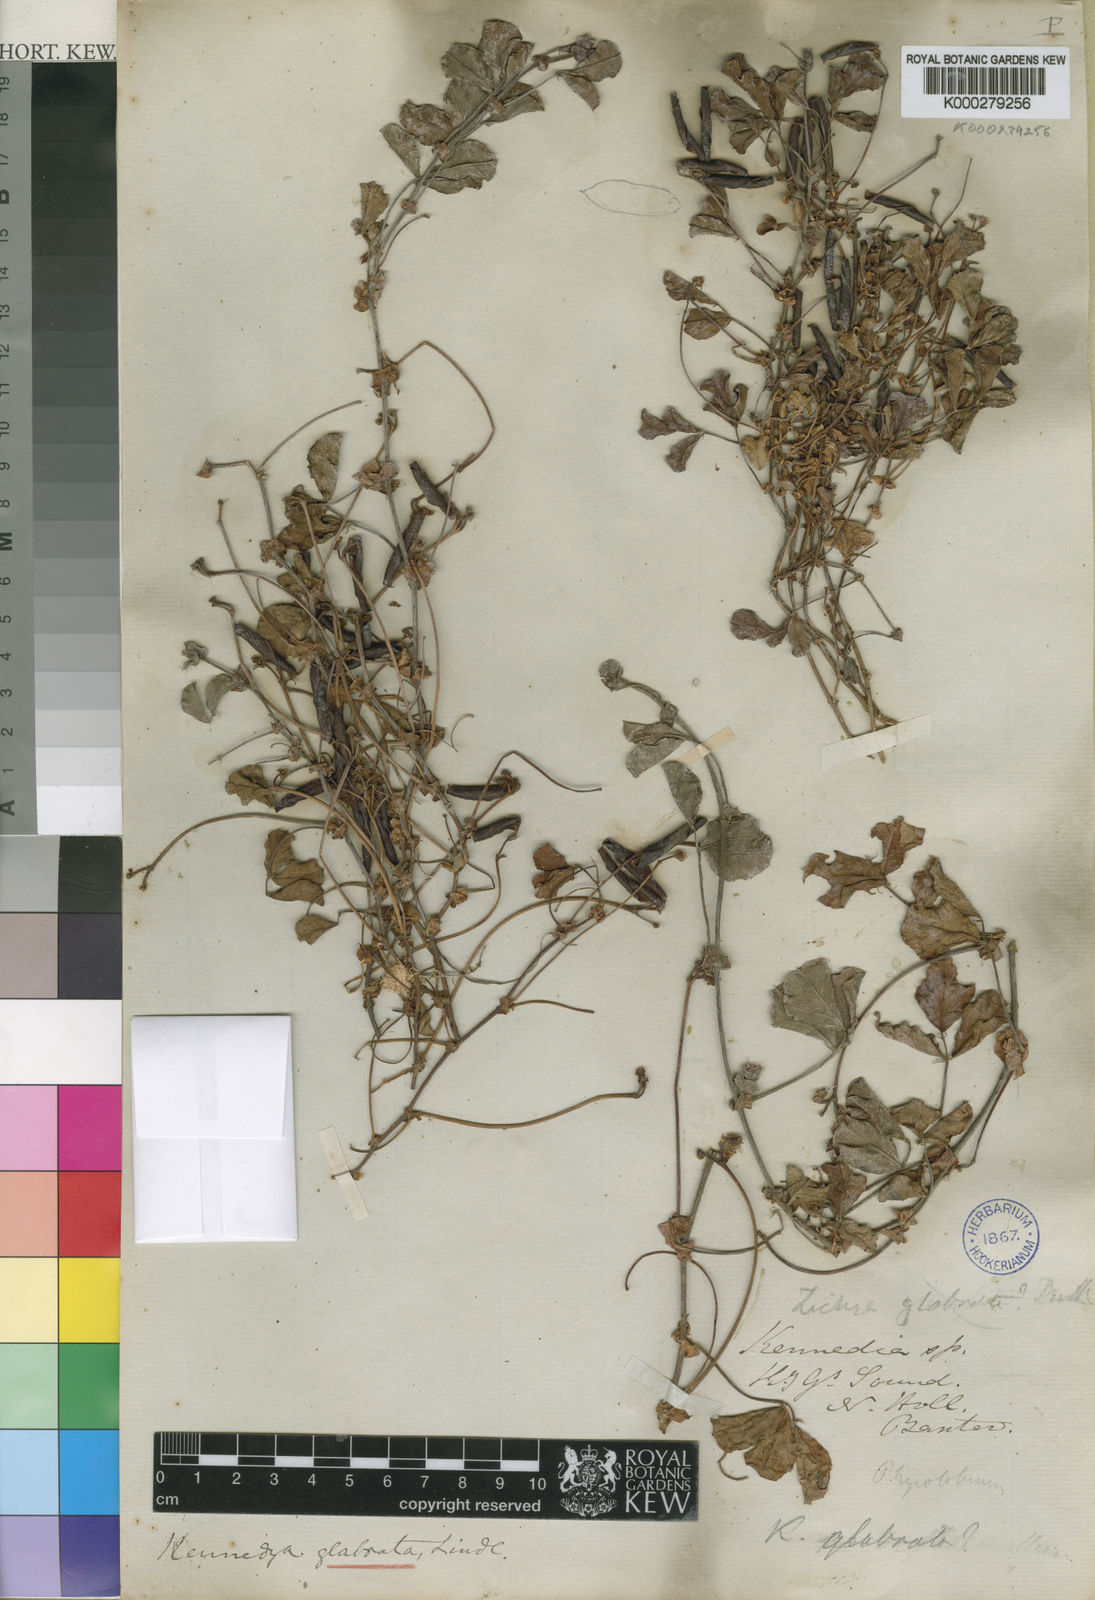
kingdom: Plantae
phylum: Tracheophyta
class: Magnoliopsida
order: Fabales
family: Fabaceae
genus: Kennedia
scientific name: Kennedia glabrata
